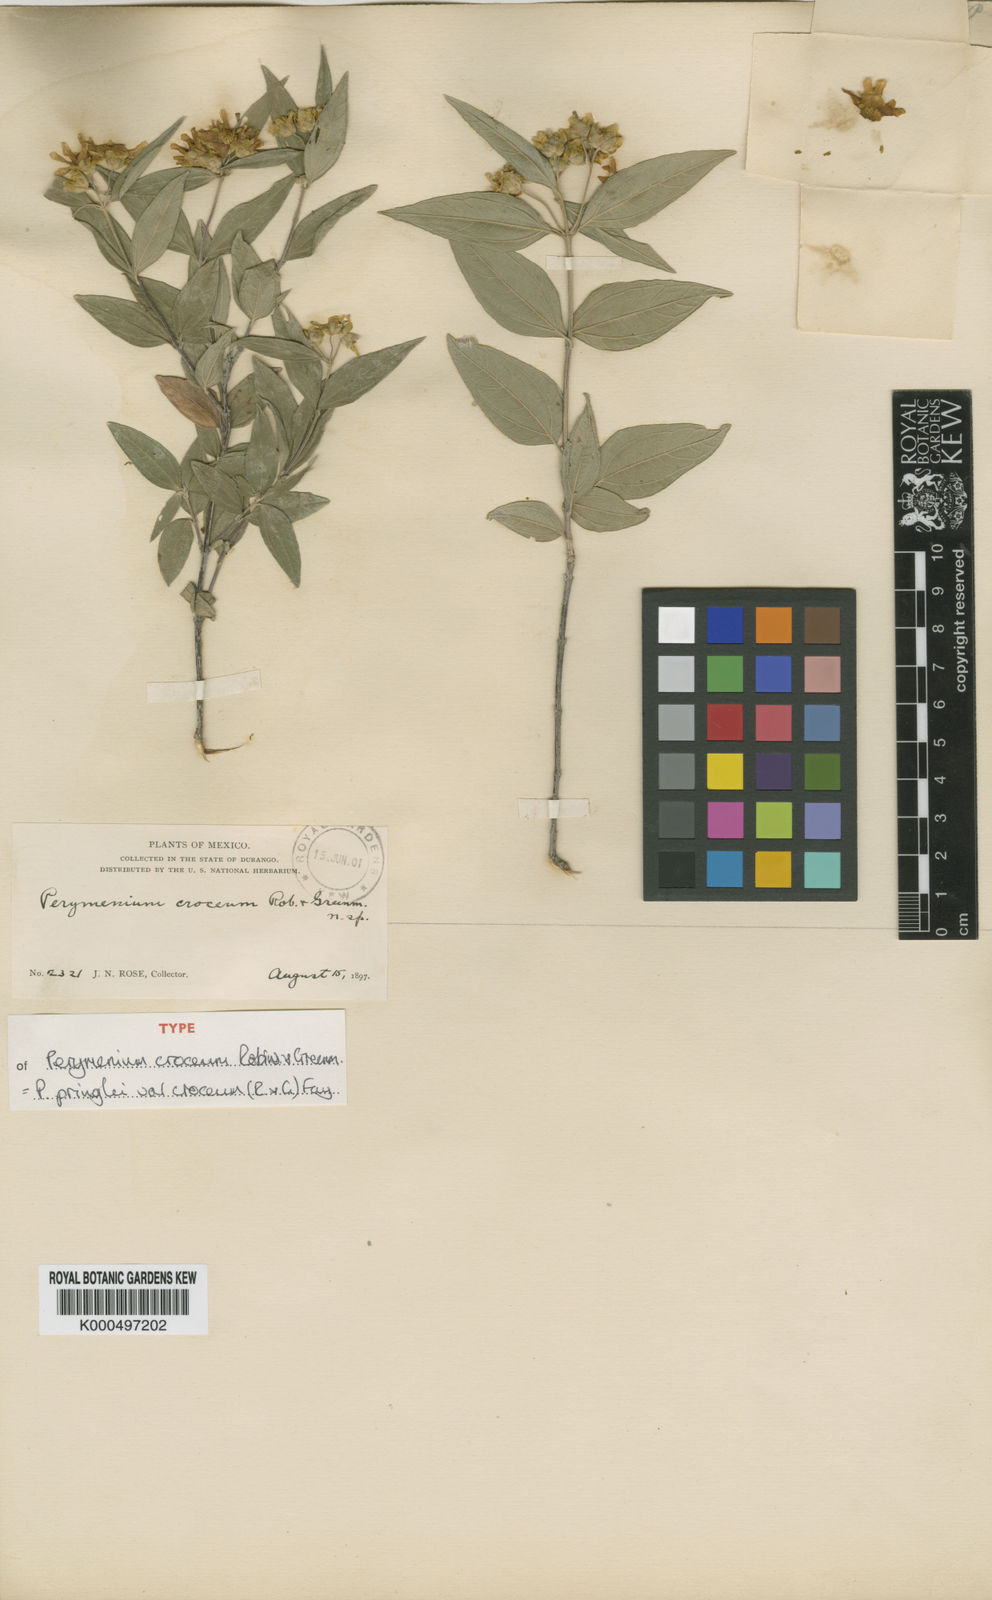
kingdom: Plantae
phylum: Tracheophyta
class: Magnoliopsida
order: Asterales
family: Asteraceae
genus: Perymenium
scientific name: Perymenium pringlei
